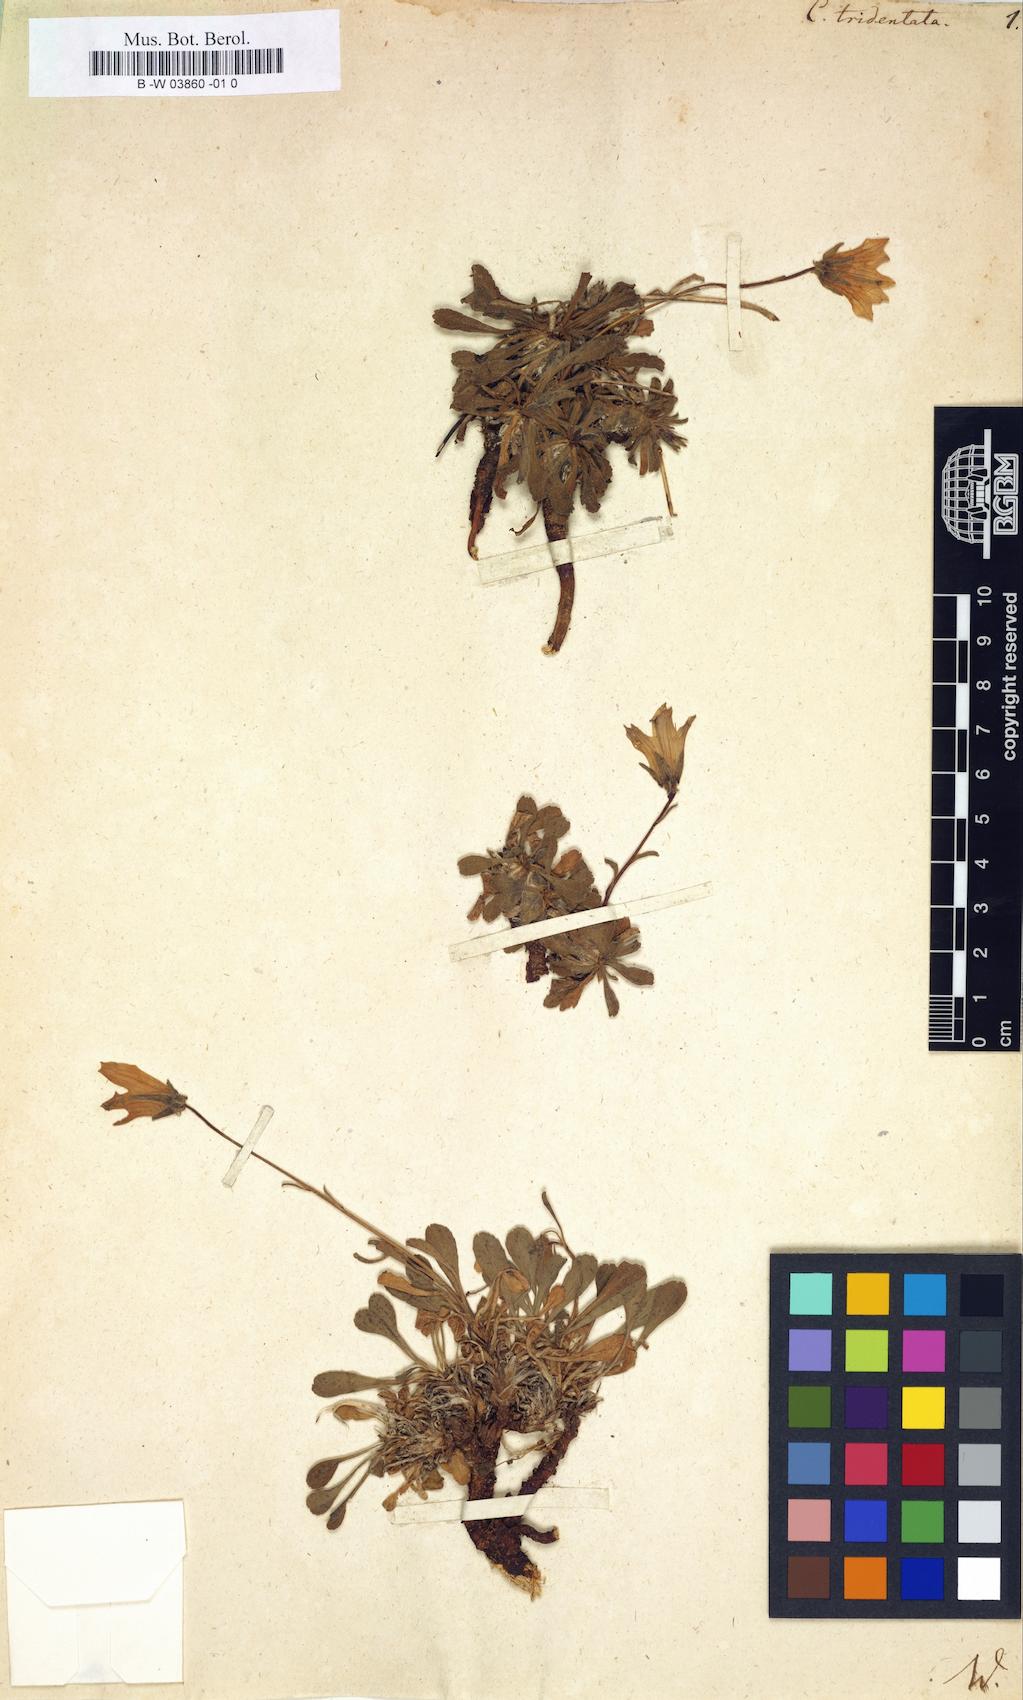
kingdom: Plantae
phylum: Tracheophyta
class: Magnoliopsida
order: Asterales
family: Campanulaceae
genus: Campanula
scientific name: Campanula tridentata
